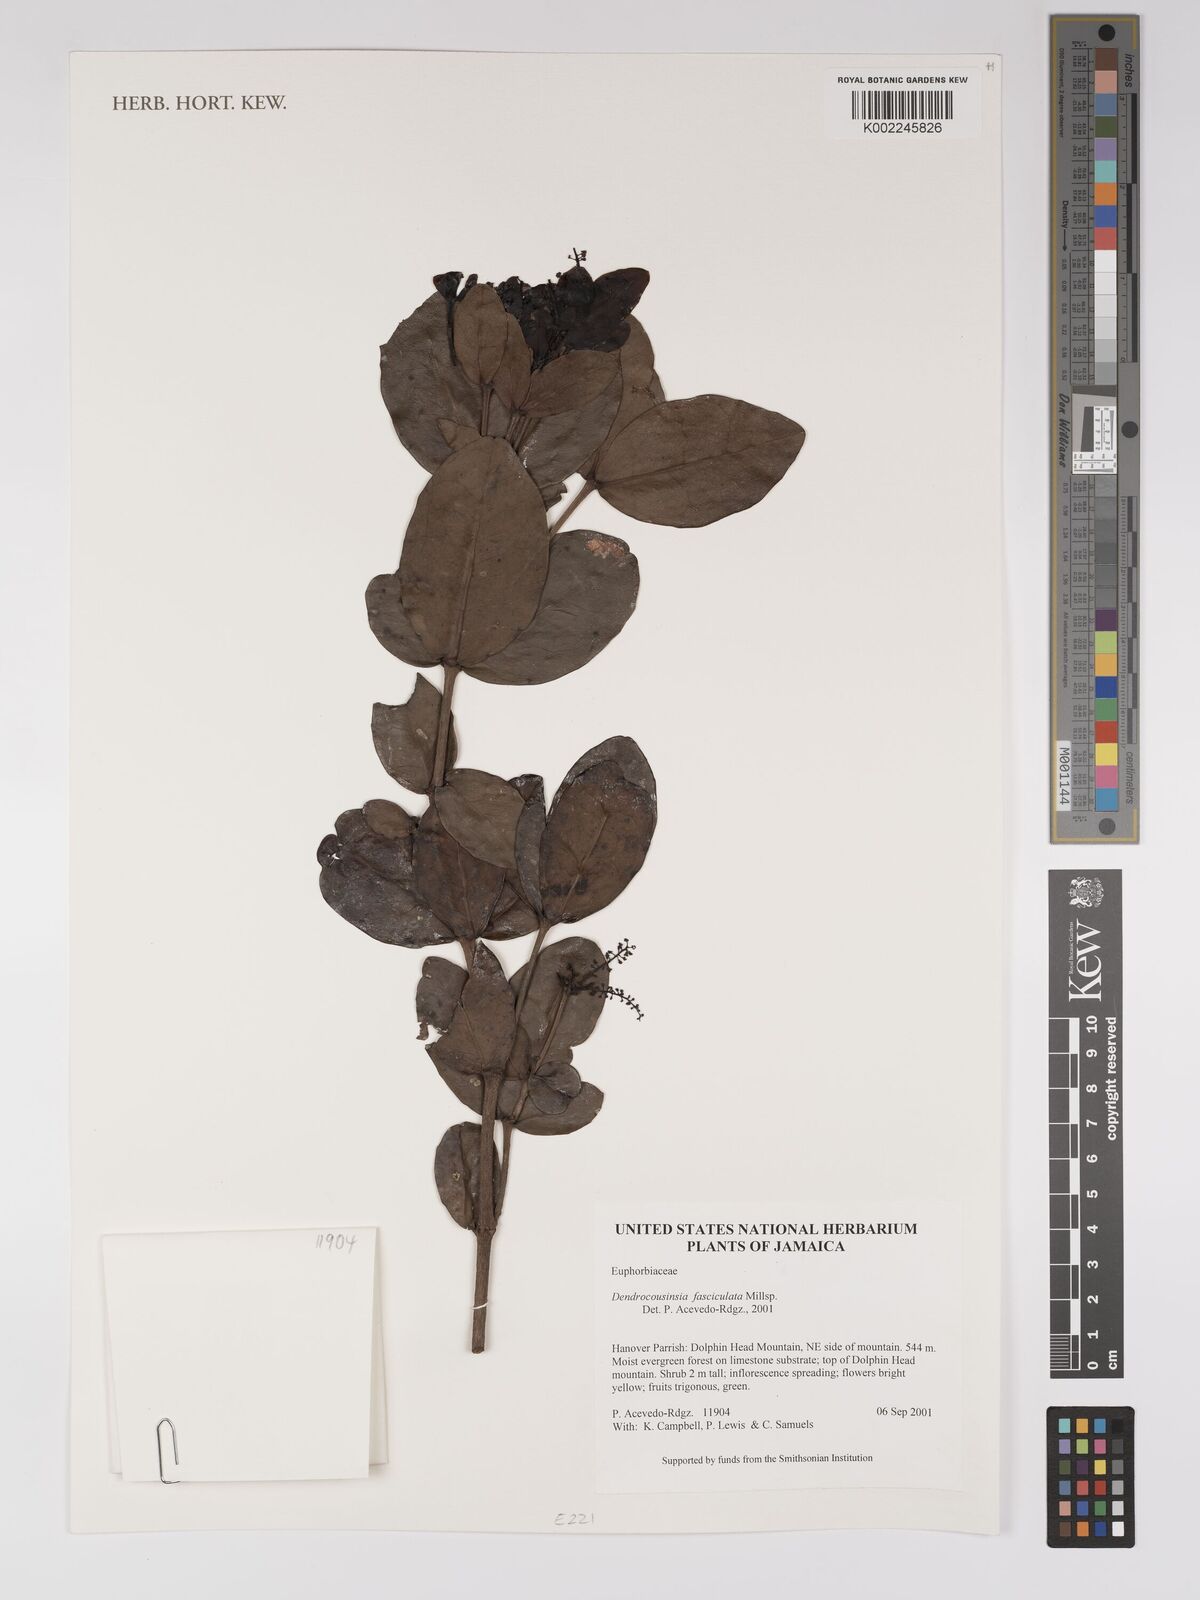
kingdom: Plantae
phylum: Tracheophyta
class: Magnoliopsida
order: Malpighiales
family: Euphorbiaceae
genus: Dendrocousinsia
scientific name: Dendrocousinsia fasciculata
